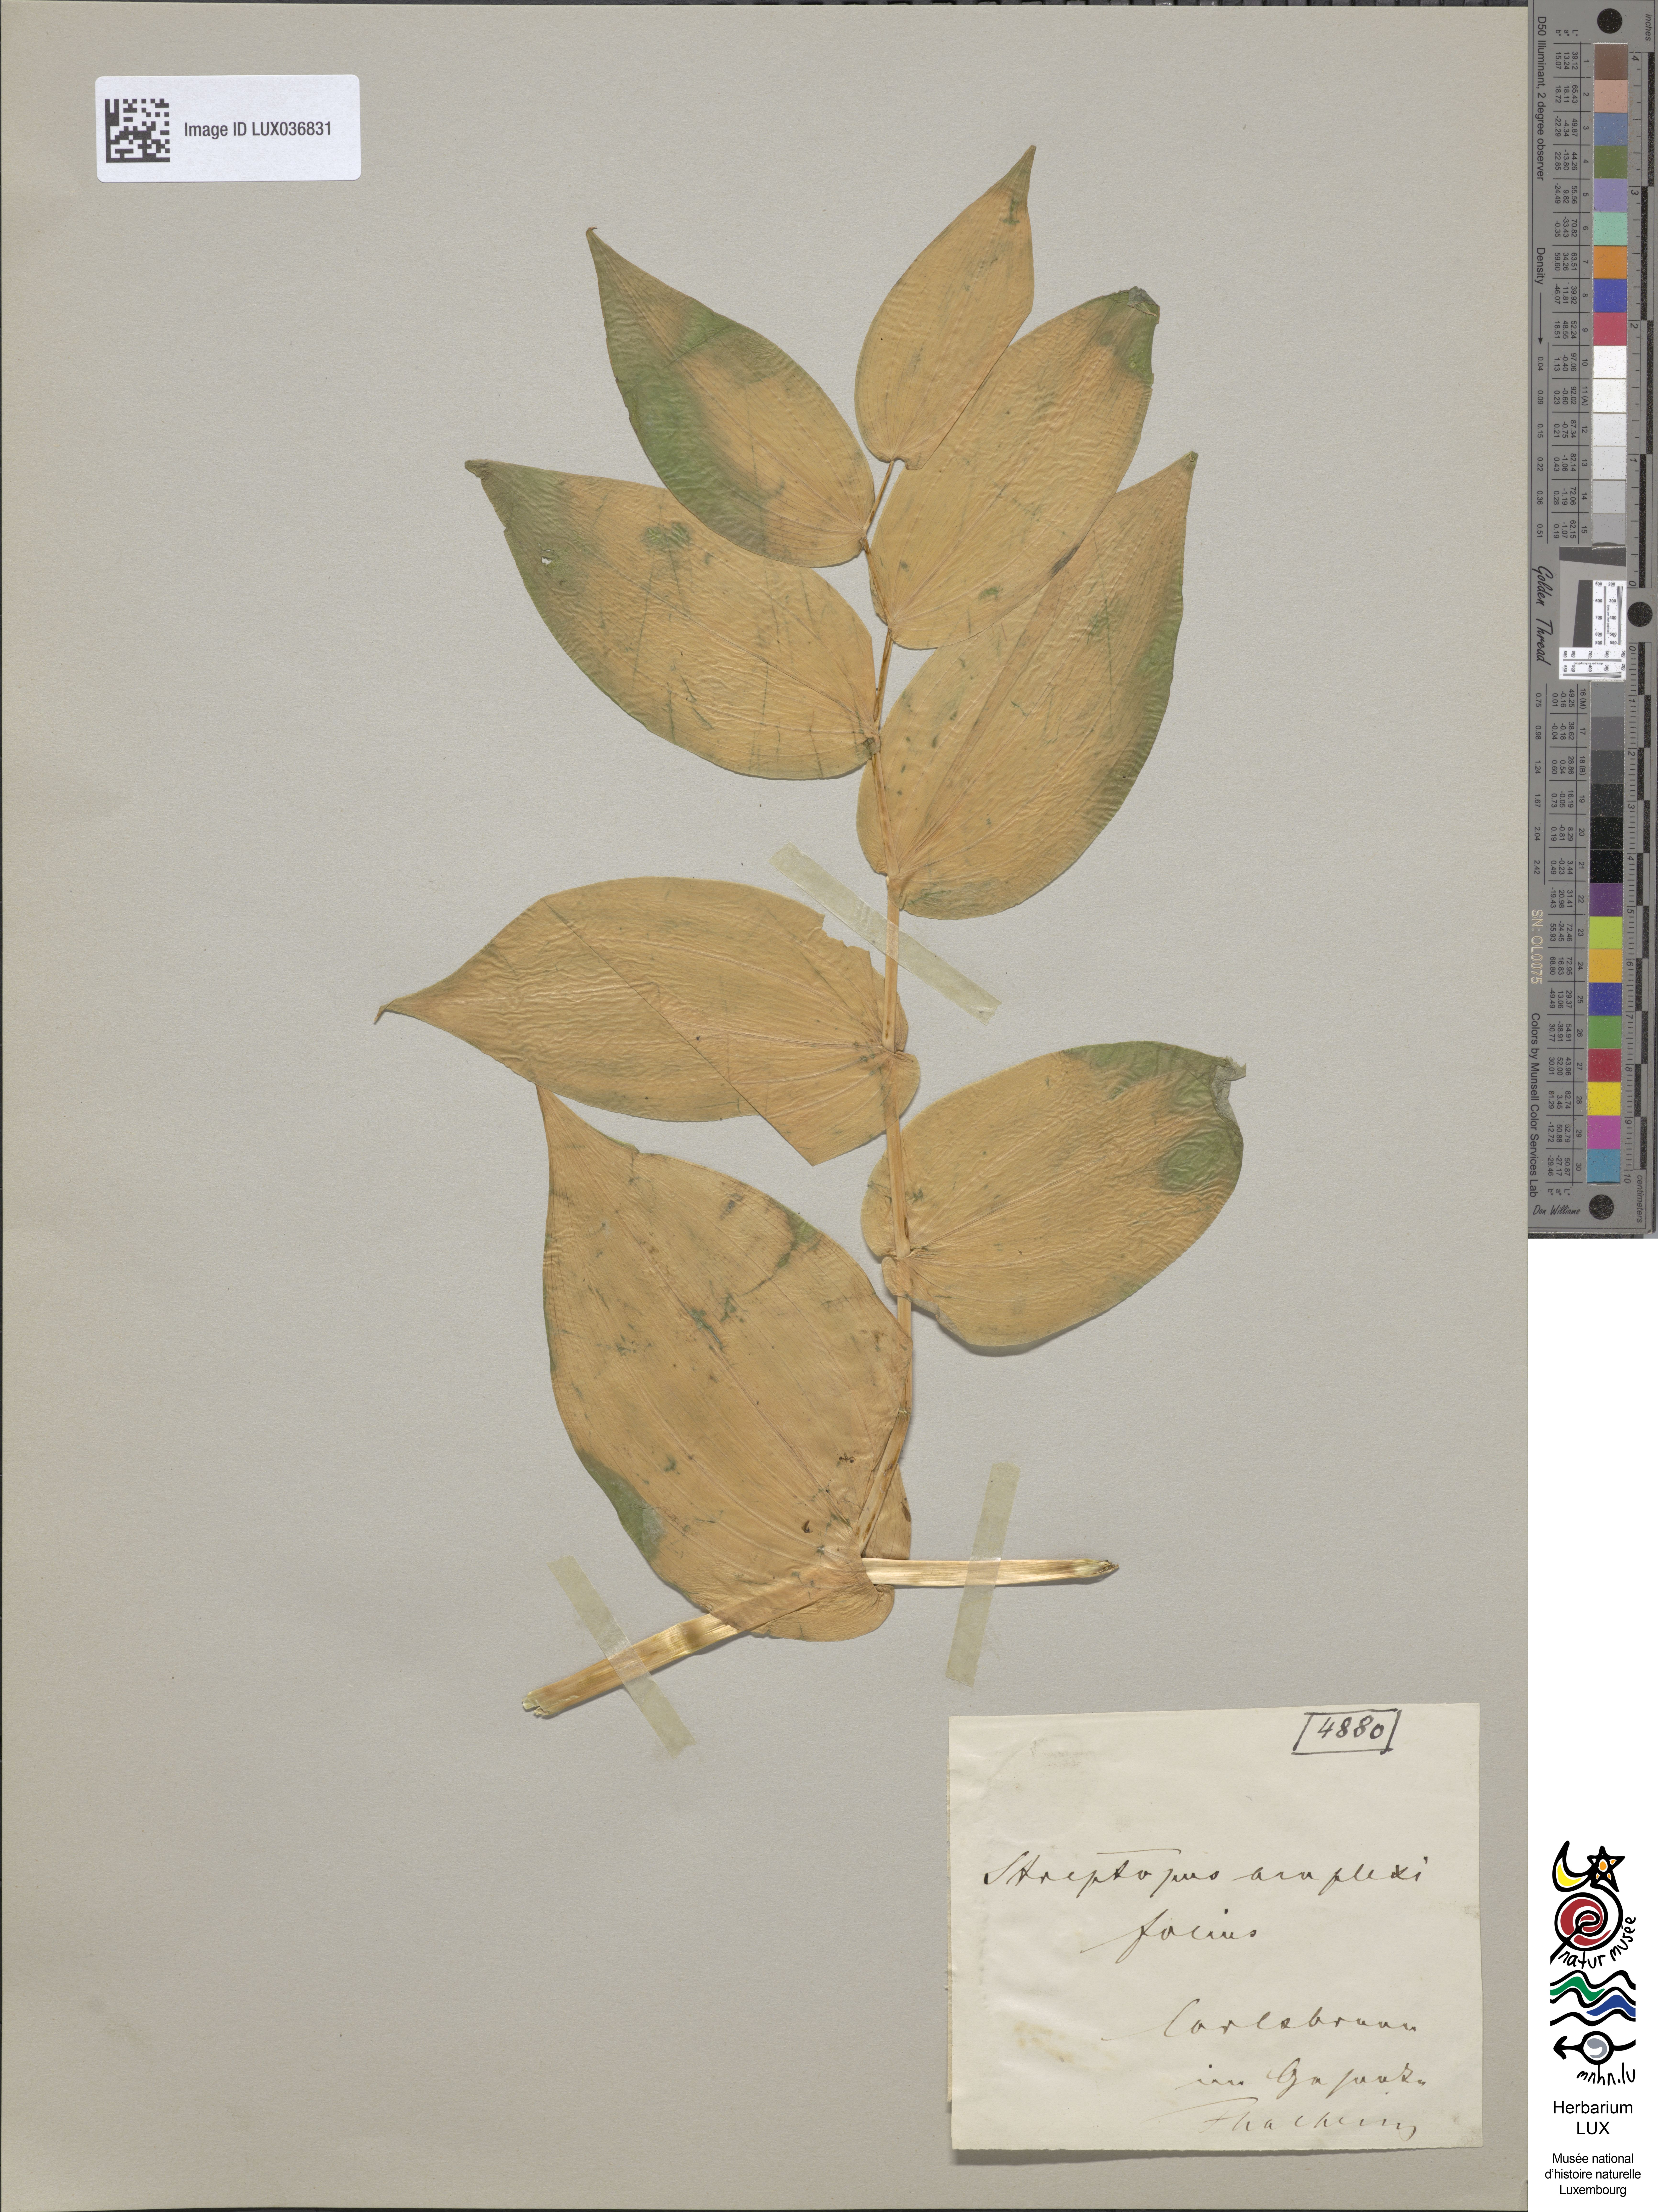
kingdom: Plantae
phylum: Tracheophyta
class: Liliopsida
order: Liliales
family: Liliaceae
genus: Streptopus
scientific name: Streptopus amplexifolius
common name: Clasp twisted stalk
